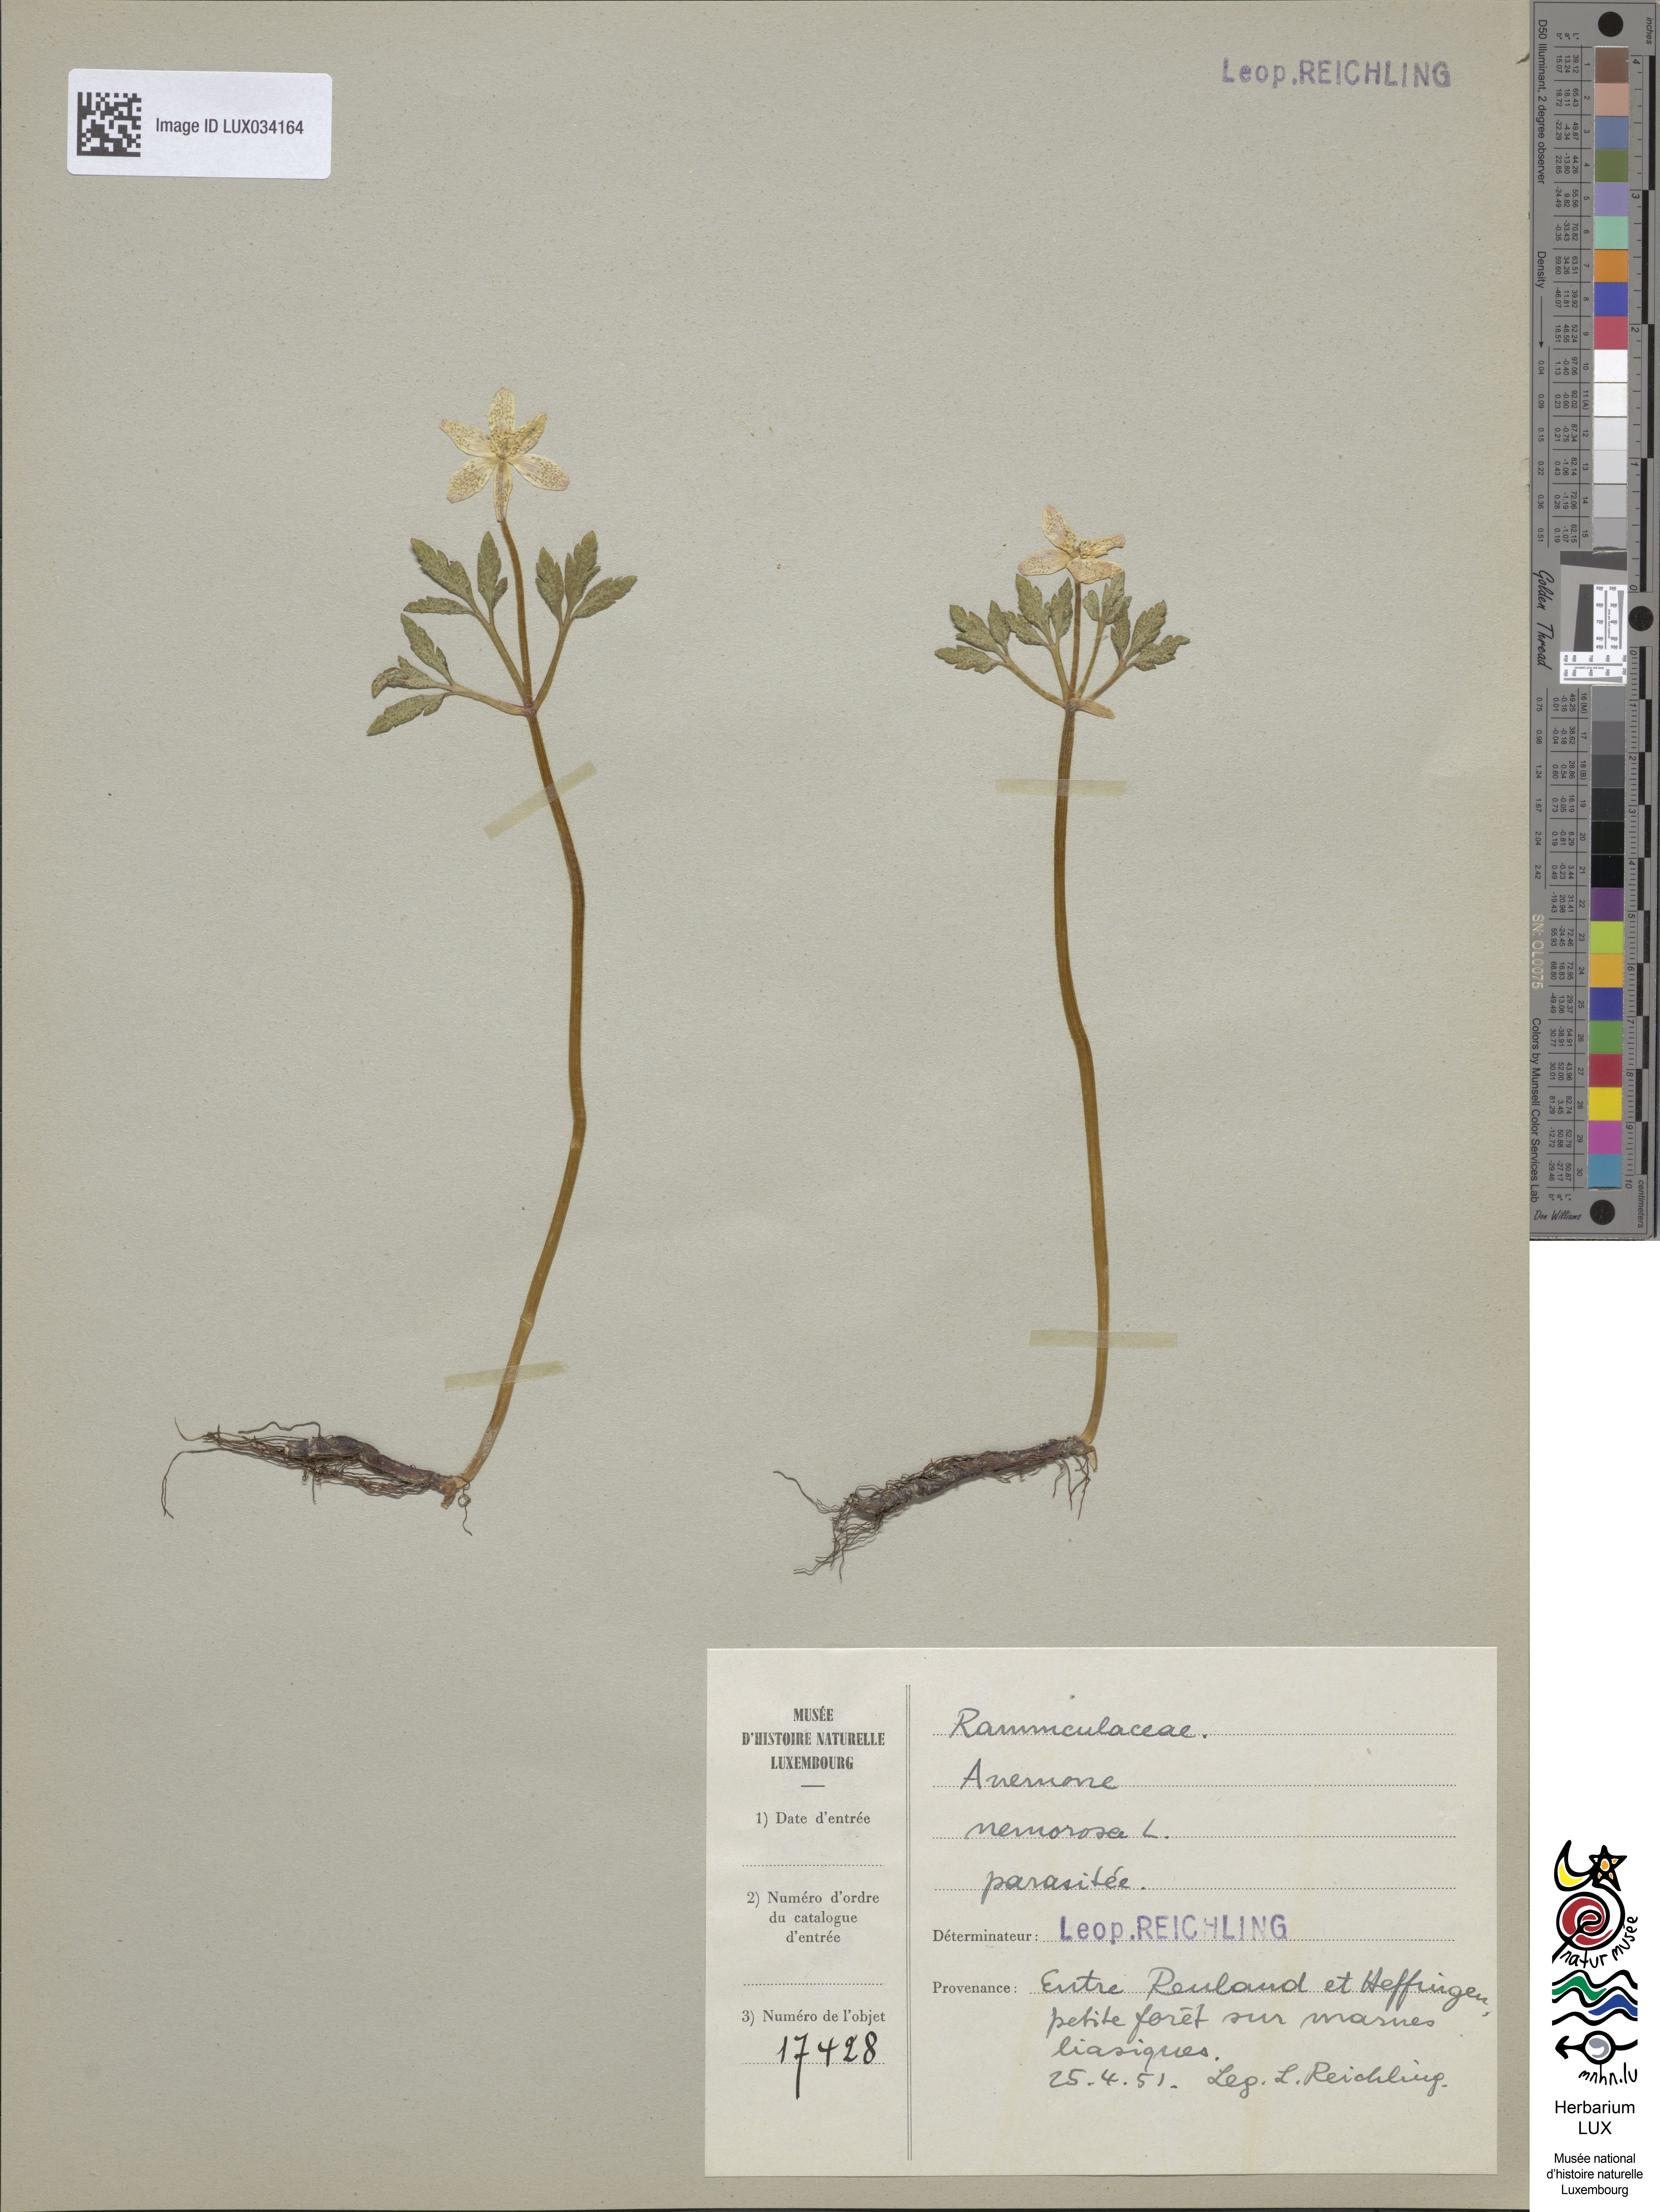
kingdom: Plantae
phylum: Tracheophyta
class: Magnoliopsida
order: Ranunculales
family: Ranunculaceae
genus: Anemone
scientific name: Anemone nemorosa
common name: Wood anemone
